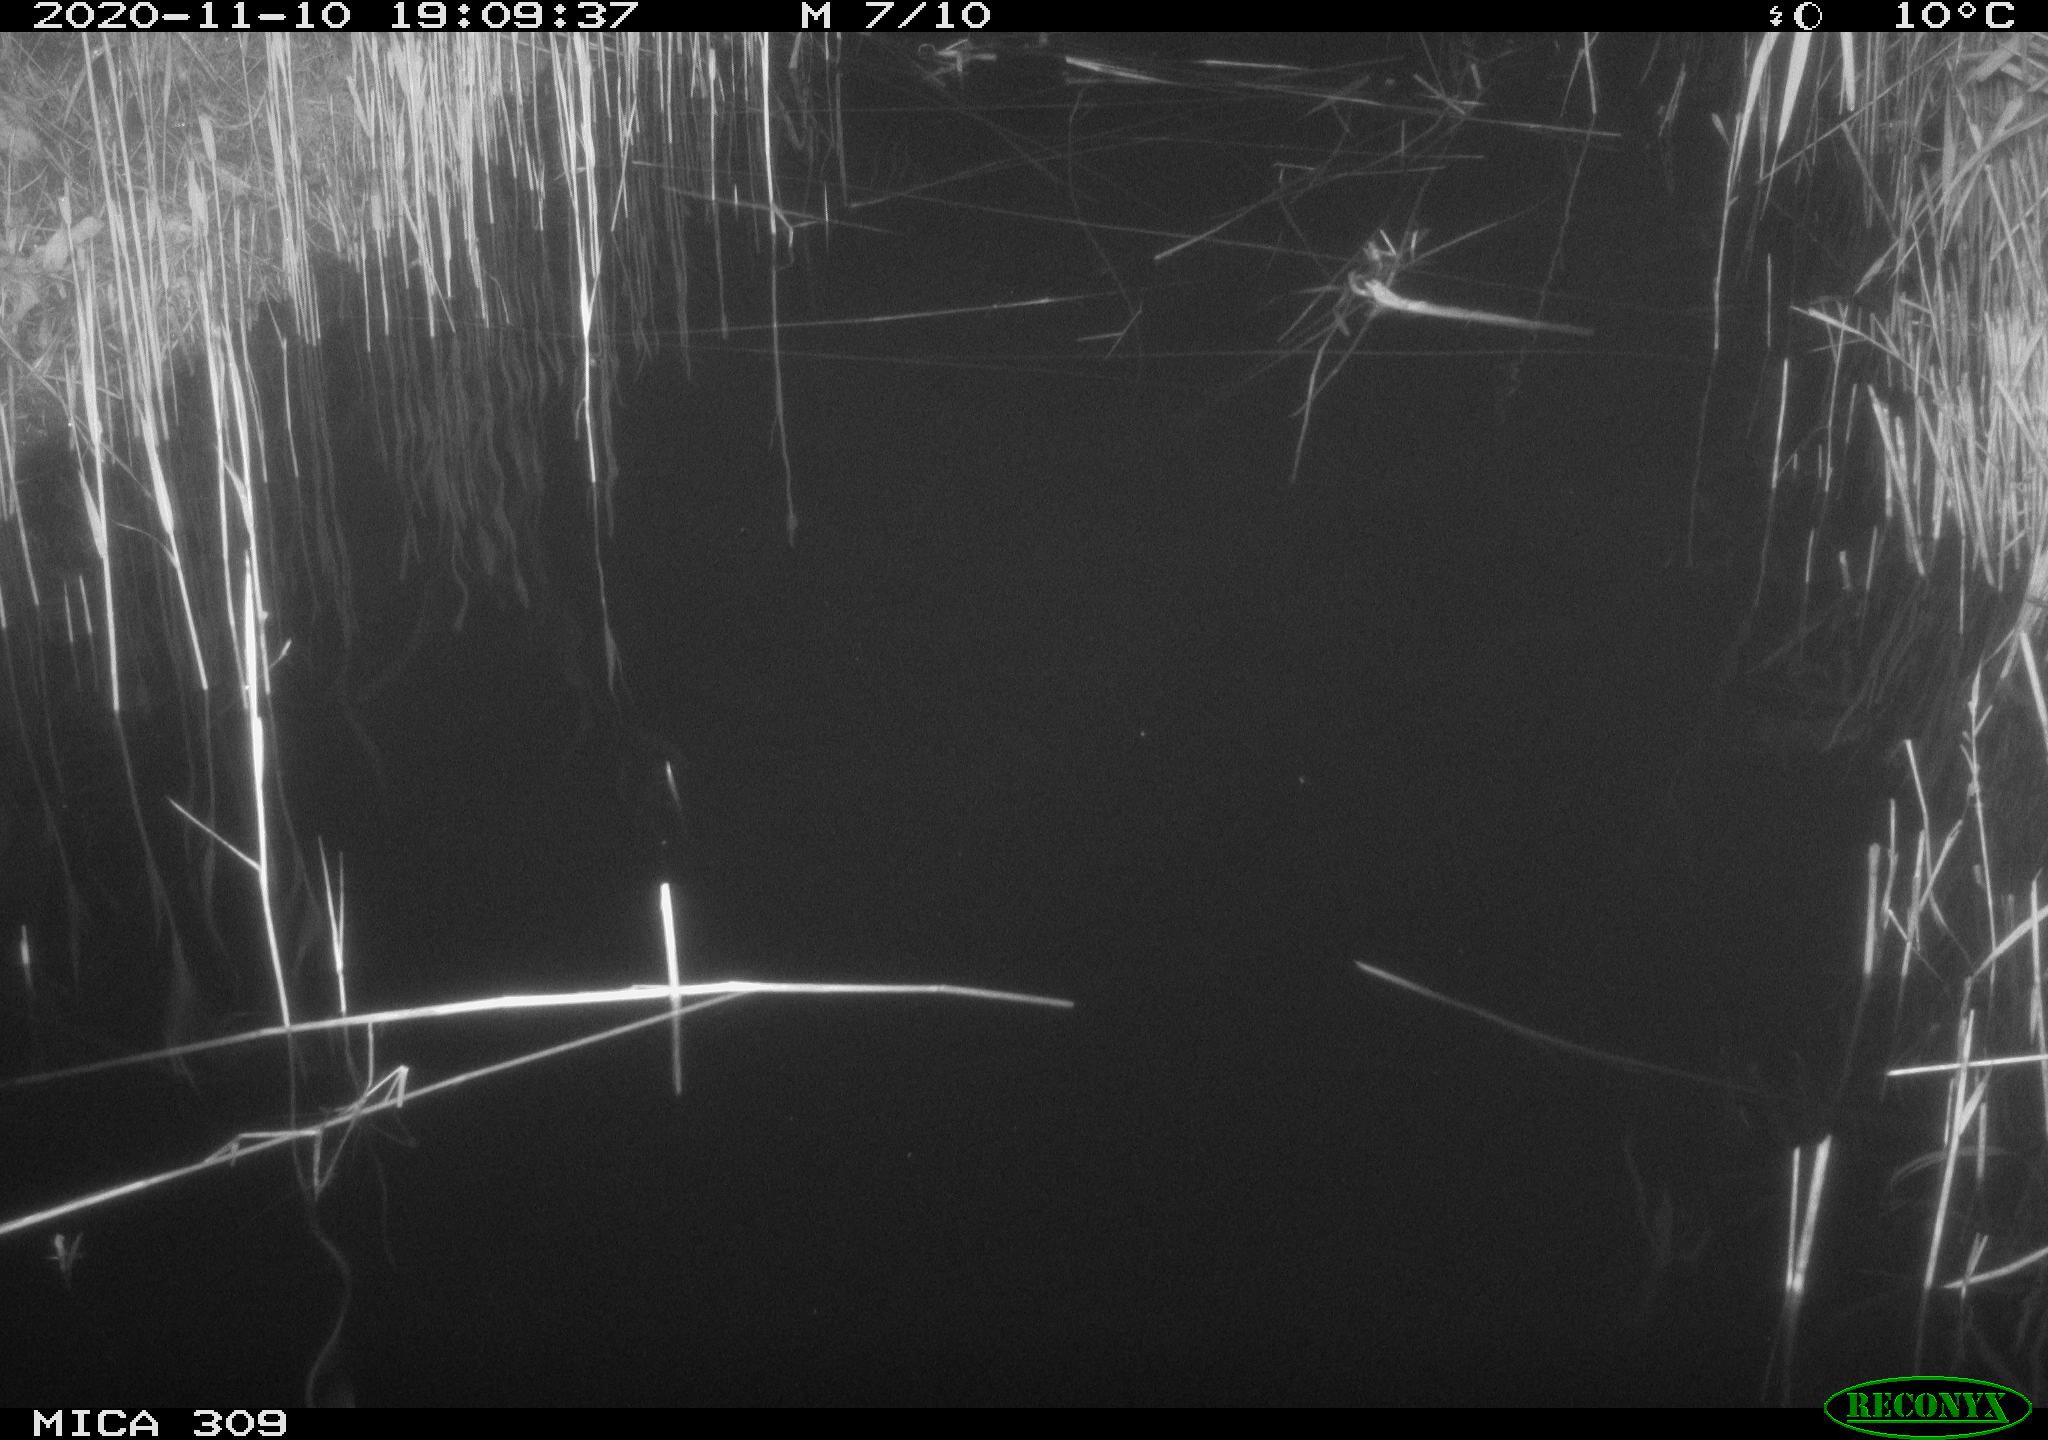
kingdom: Animalia
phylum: Chordata
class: Mammalia
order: Rodentia
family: Muridae
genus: Rattus
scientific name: Rattus norvegicus
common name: Brown rat
